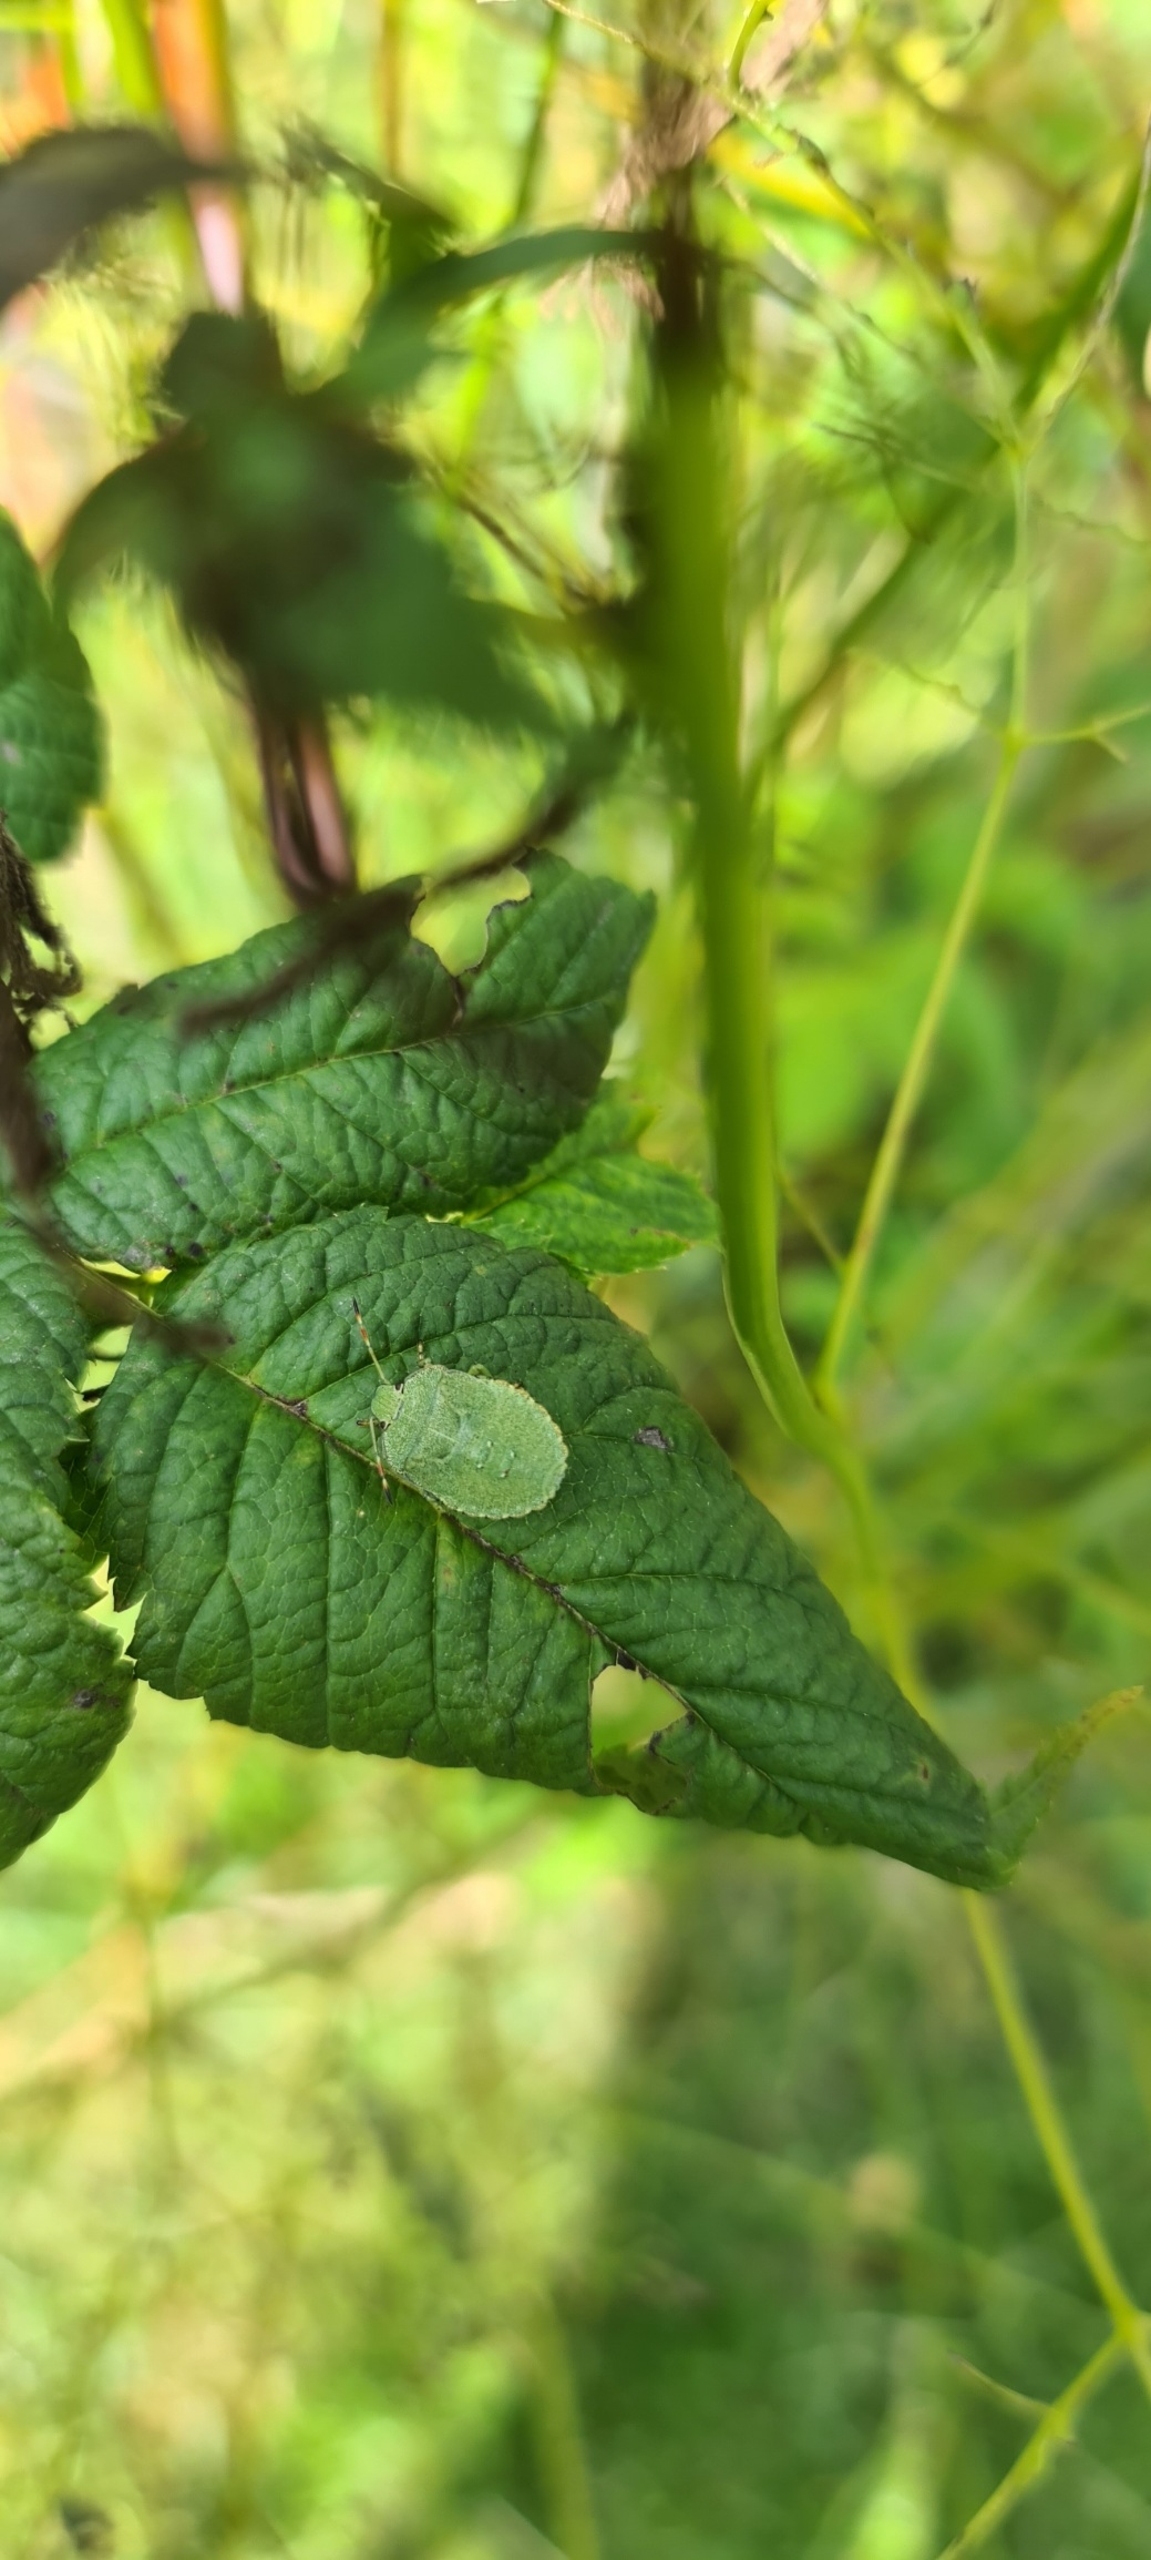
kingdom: Animalia
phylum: Arthropoda
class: Insecta
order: Hemiptera
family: Pentatomidae
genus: Palomena
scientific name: Palomena prasina
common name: Grøn bredtæge
